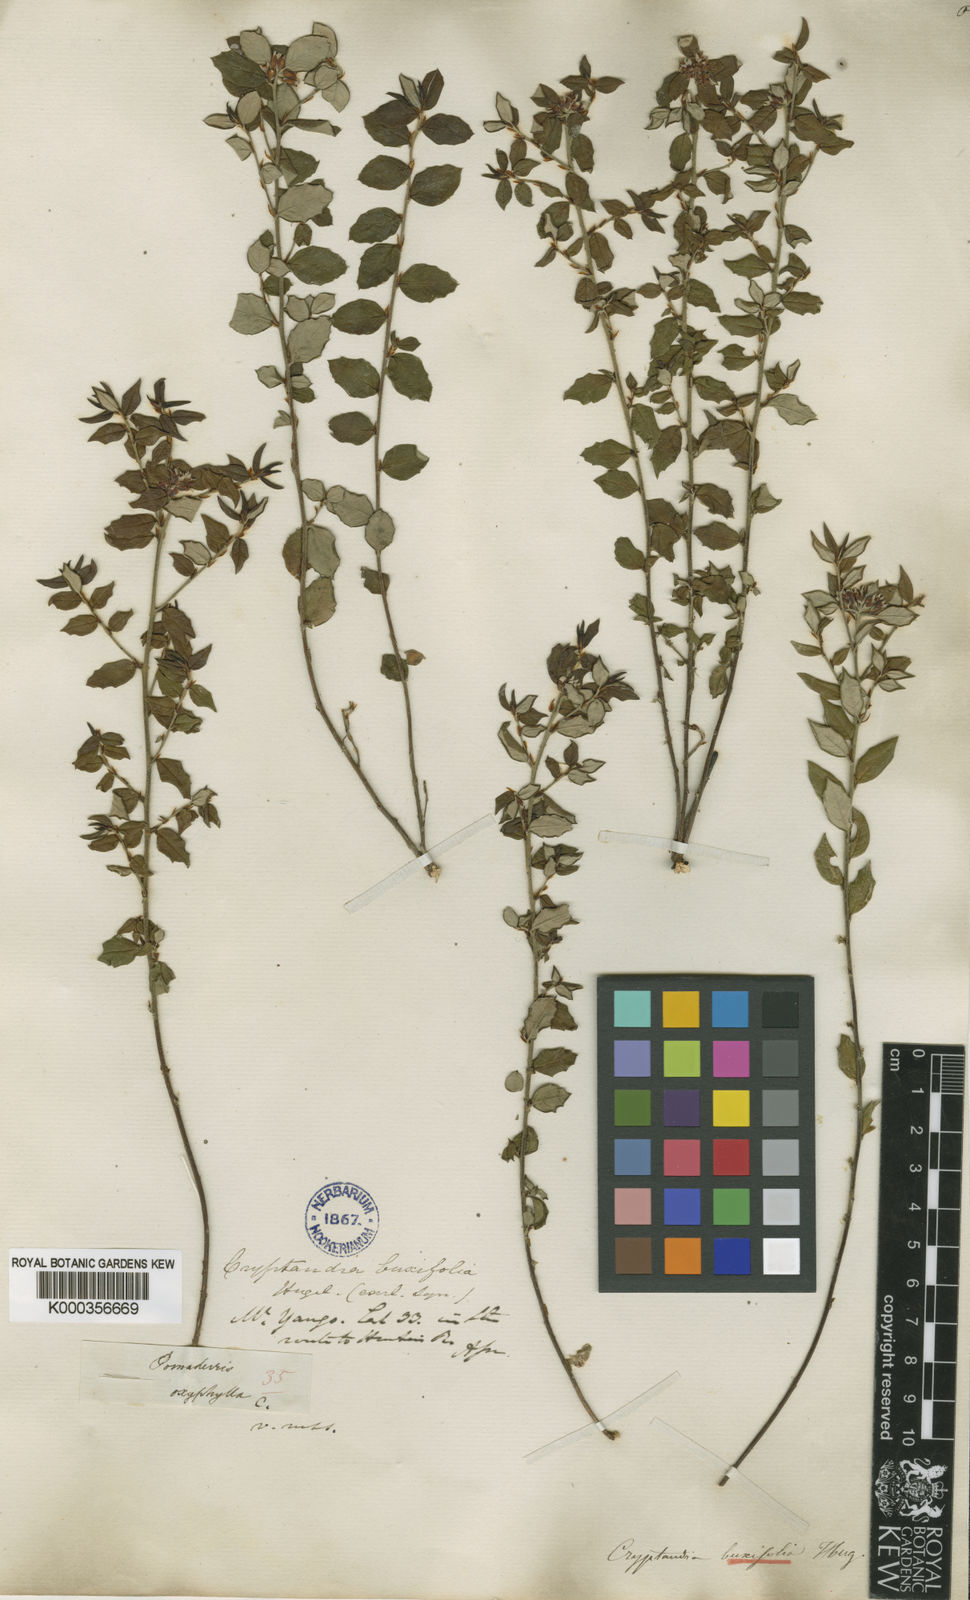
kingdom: Plantae
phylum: Tracheophyta
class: Magnoliopsida
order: Rosales
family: Rhamnaceae
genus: Spyridium
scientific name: Spyridium
